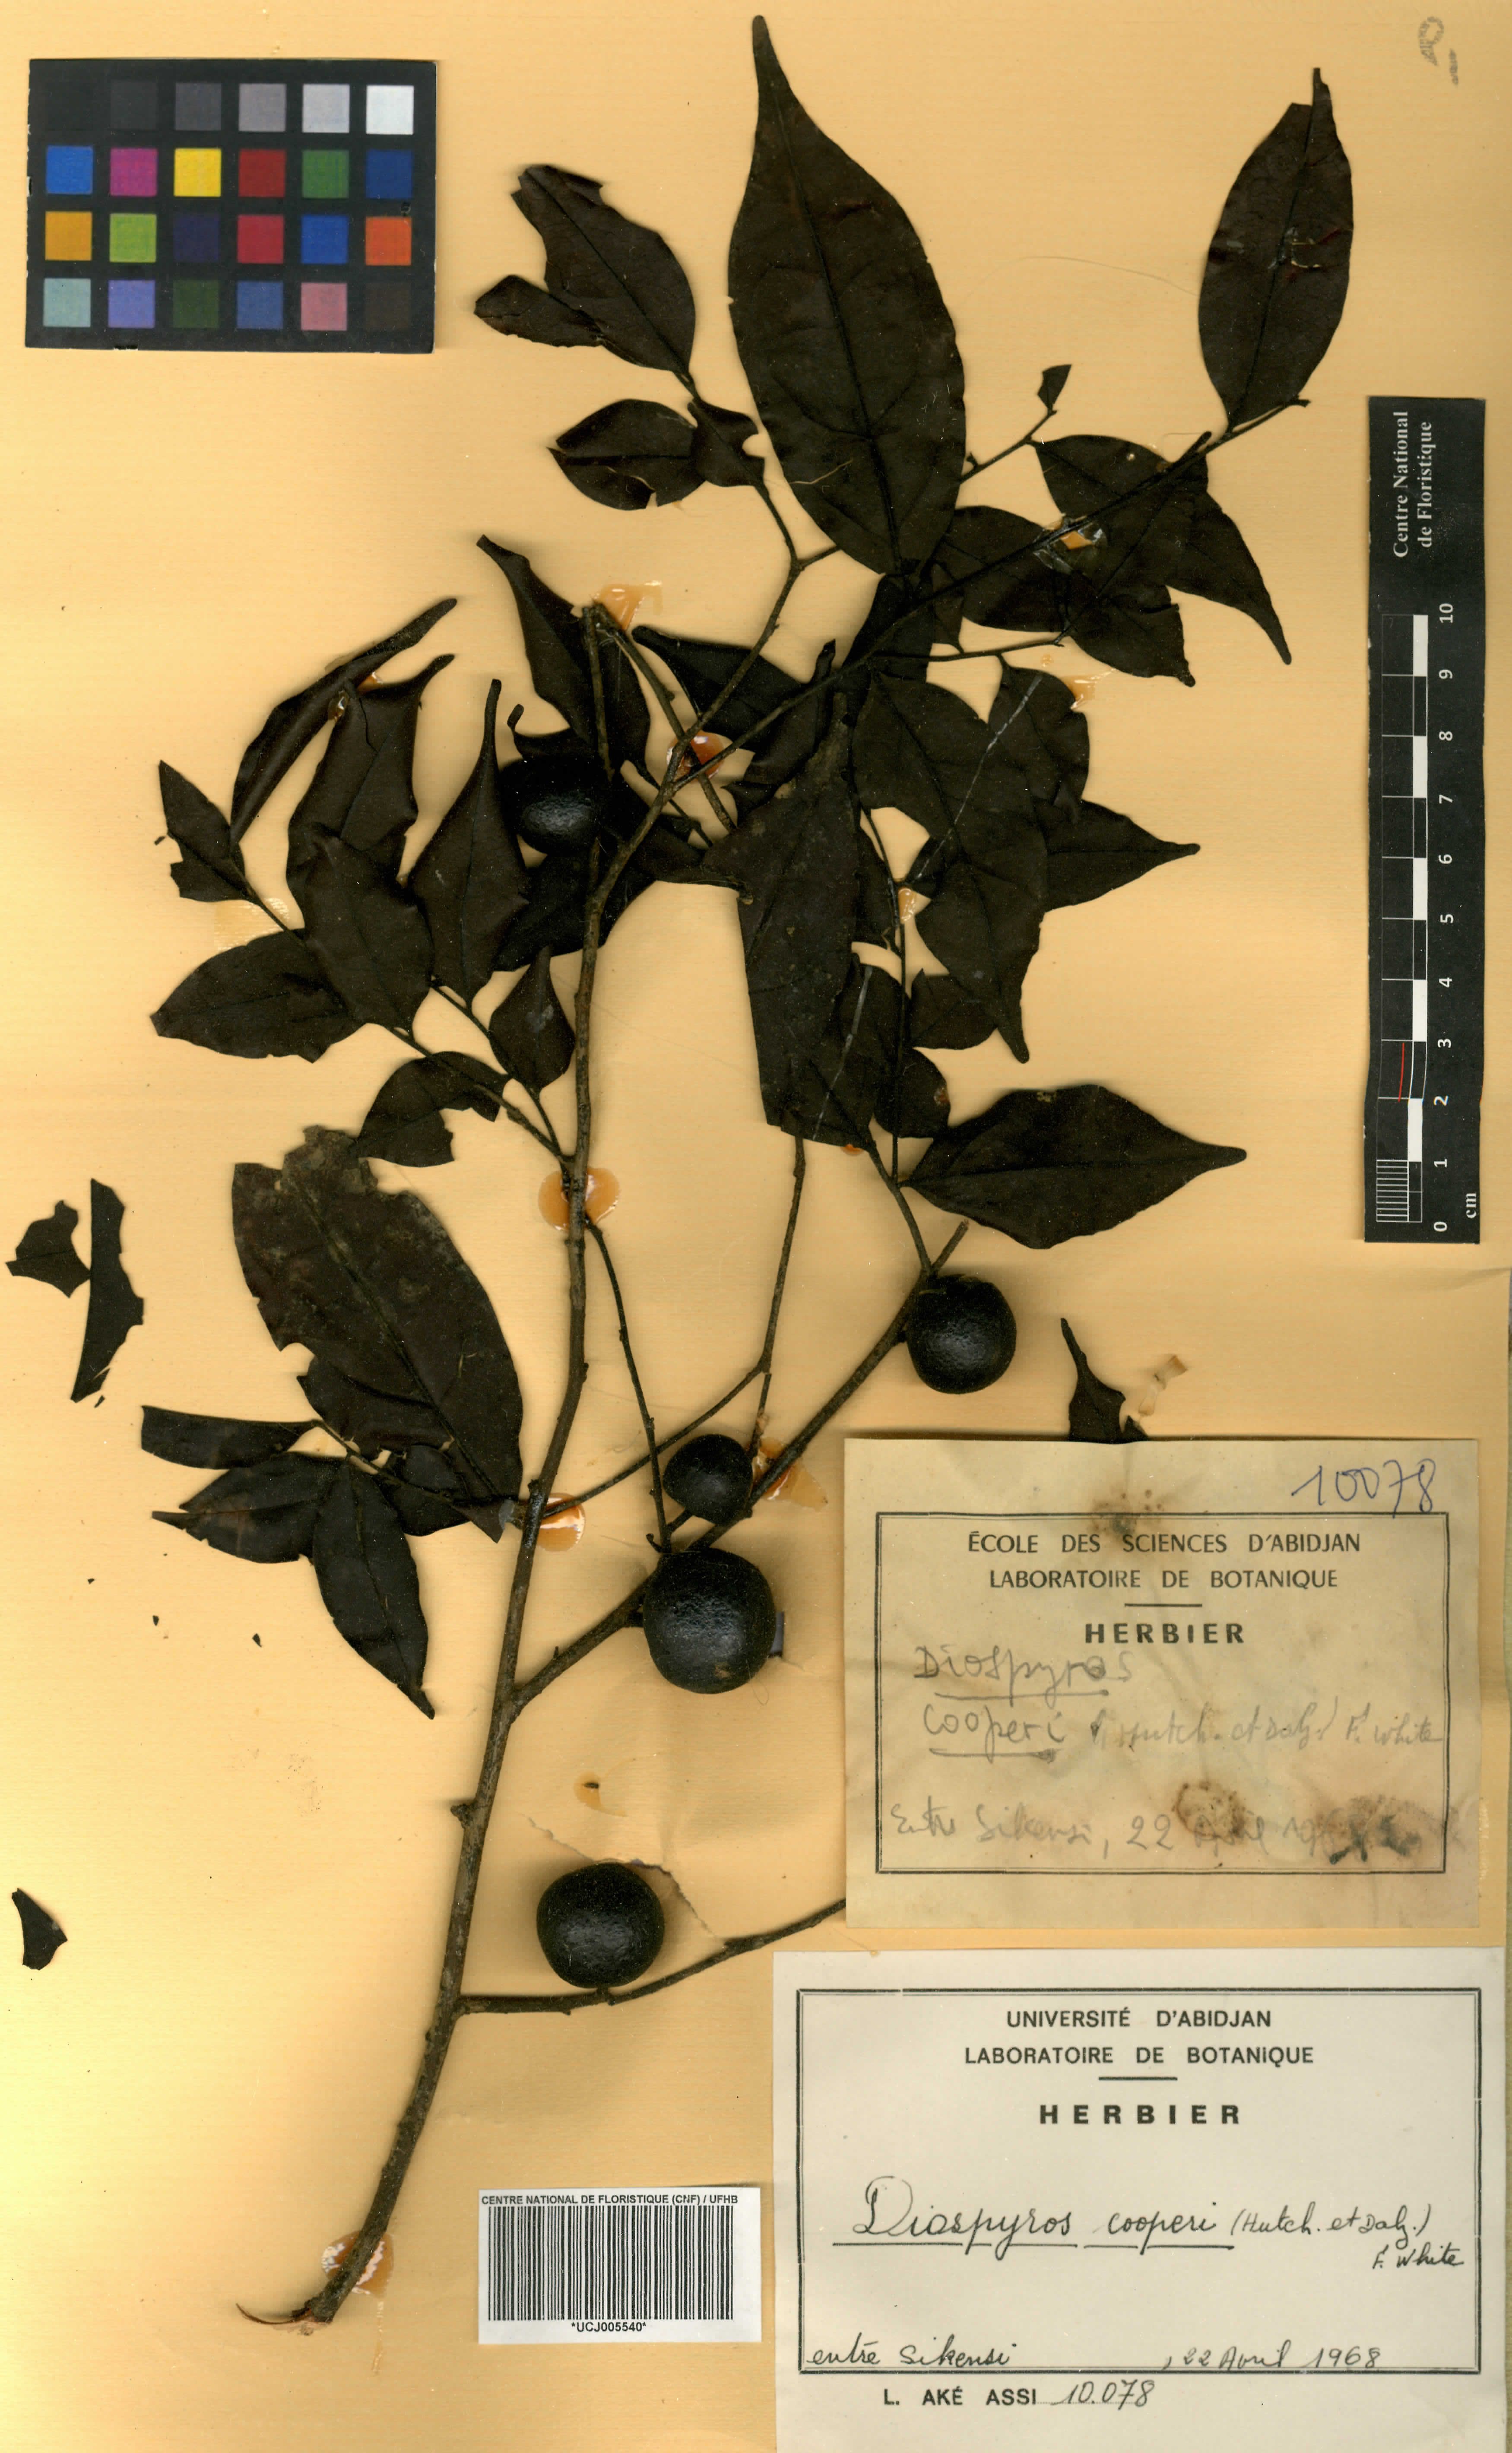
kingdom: Plantae
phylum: Tracheophyta
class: Magnoliopsida
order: Ericales
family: Ebenaceae
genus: Diospyros
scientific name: Diospyros cooperi
